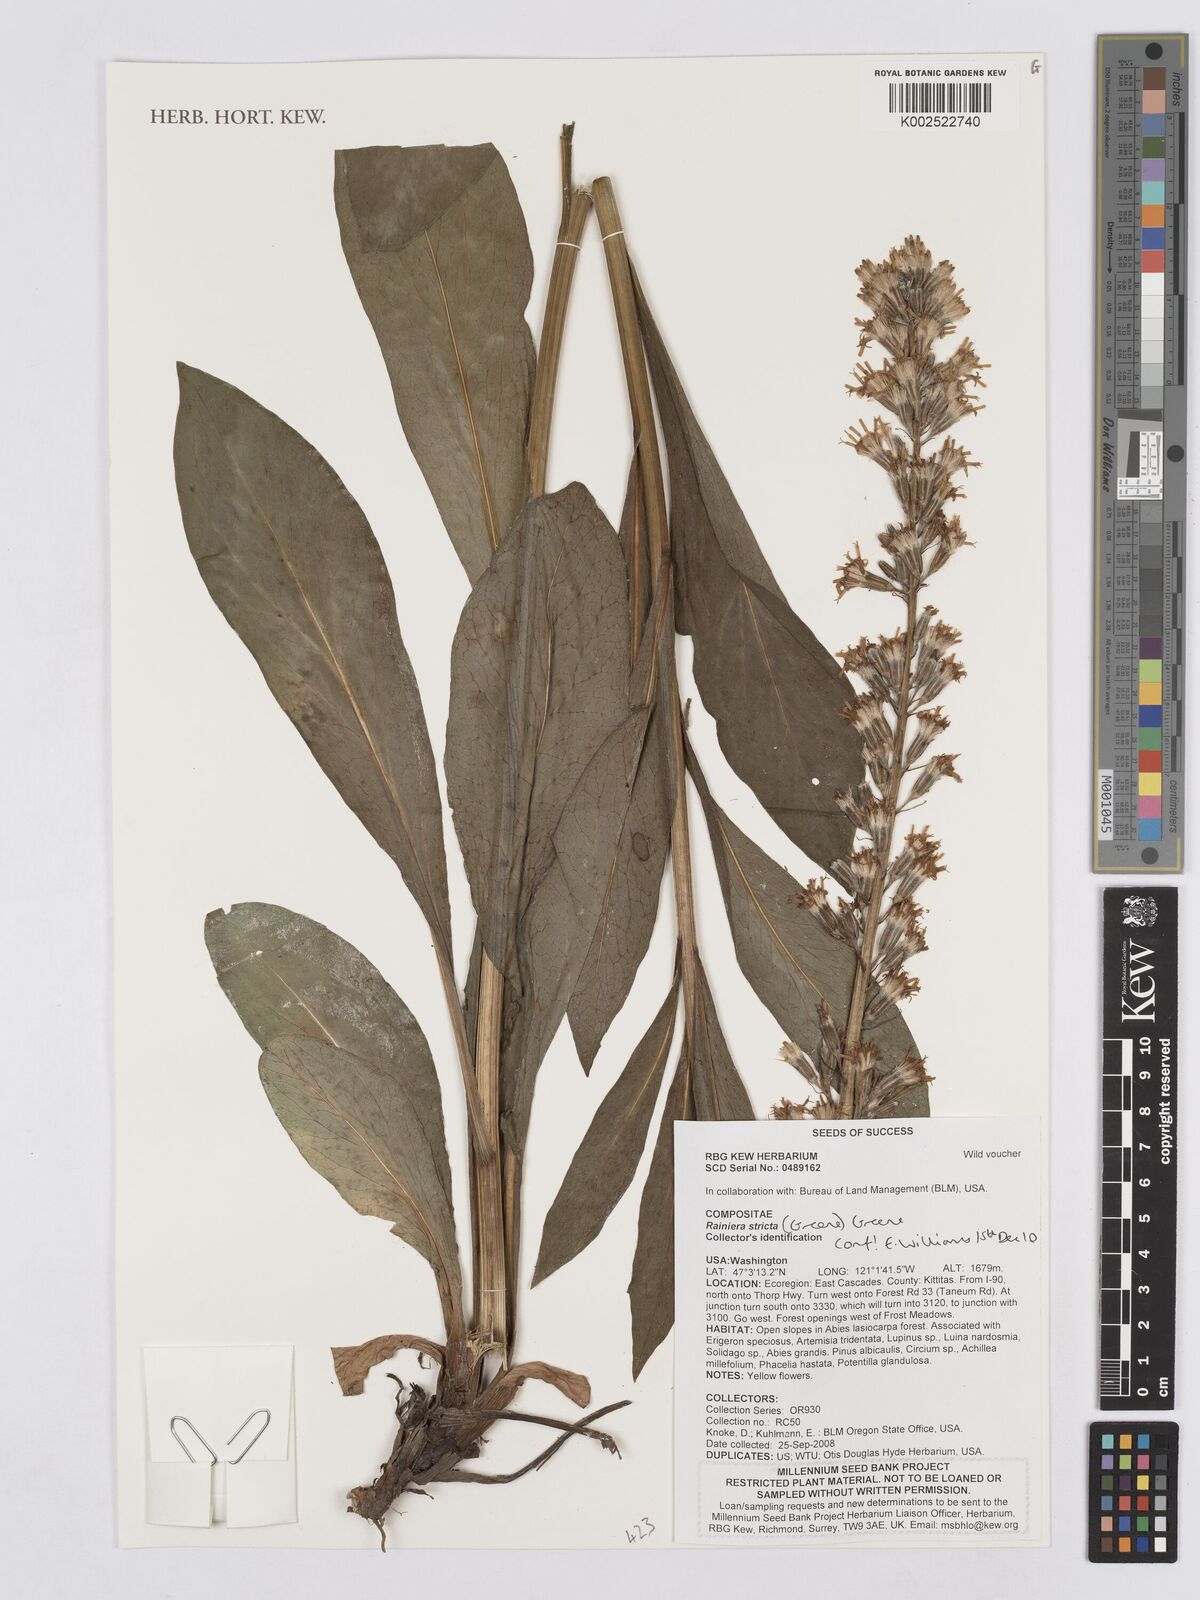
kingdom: Plantae
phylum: Tracheophyta
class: Magnoliopsida
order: Asterales
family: Asteraceae
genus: Rainiera
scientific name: Rainiera stricta
